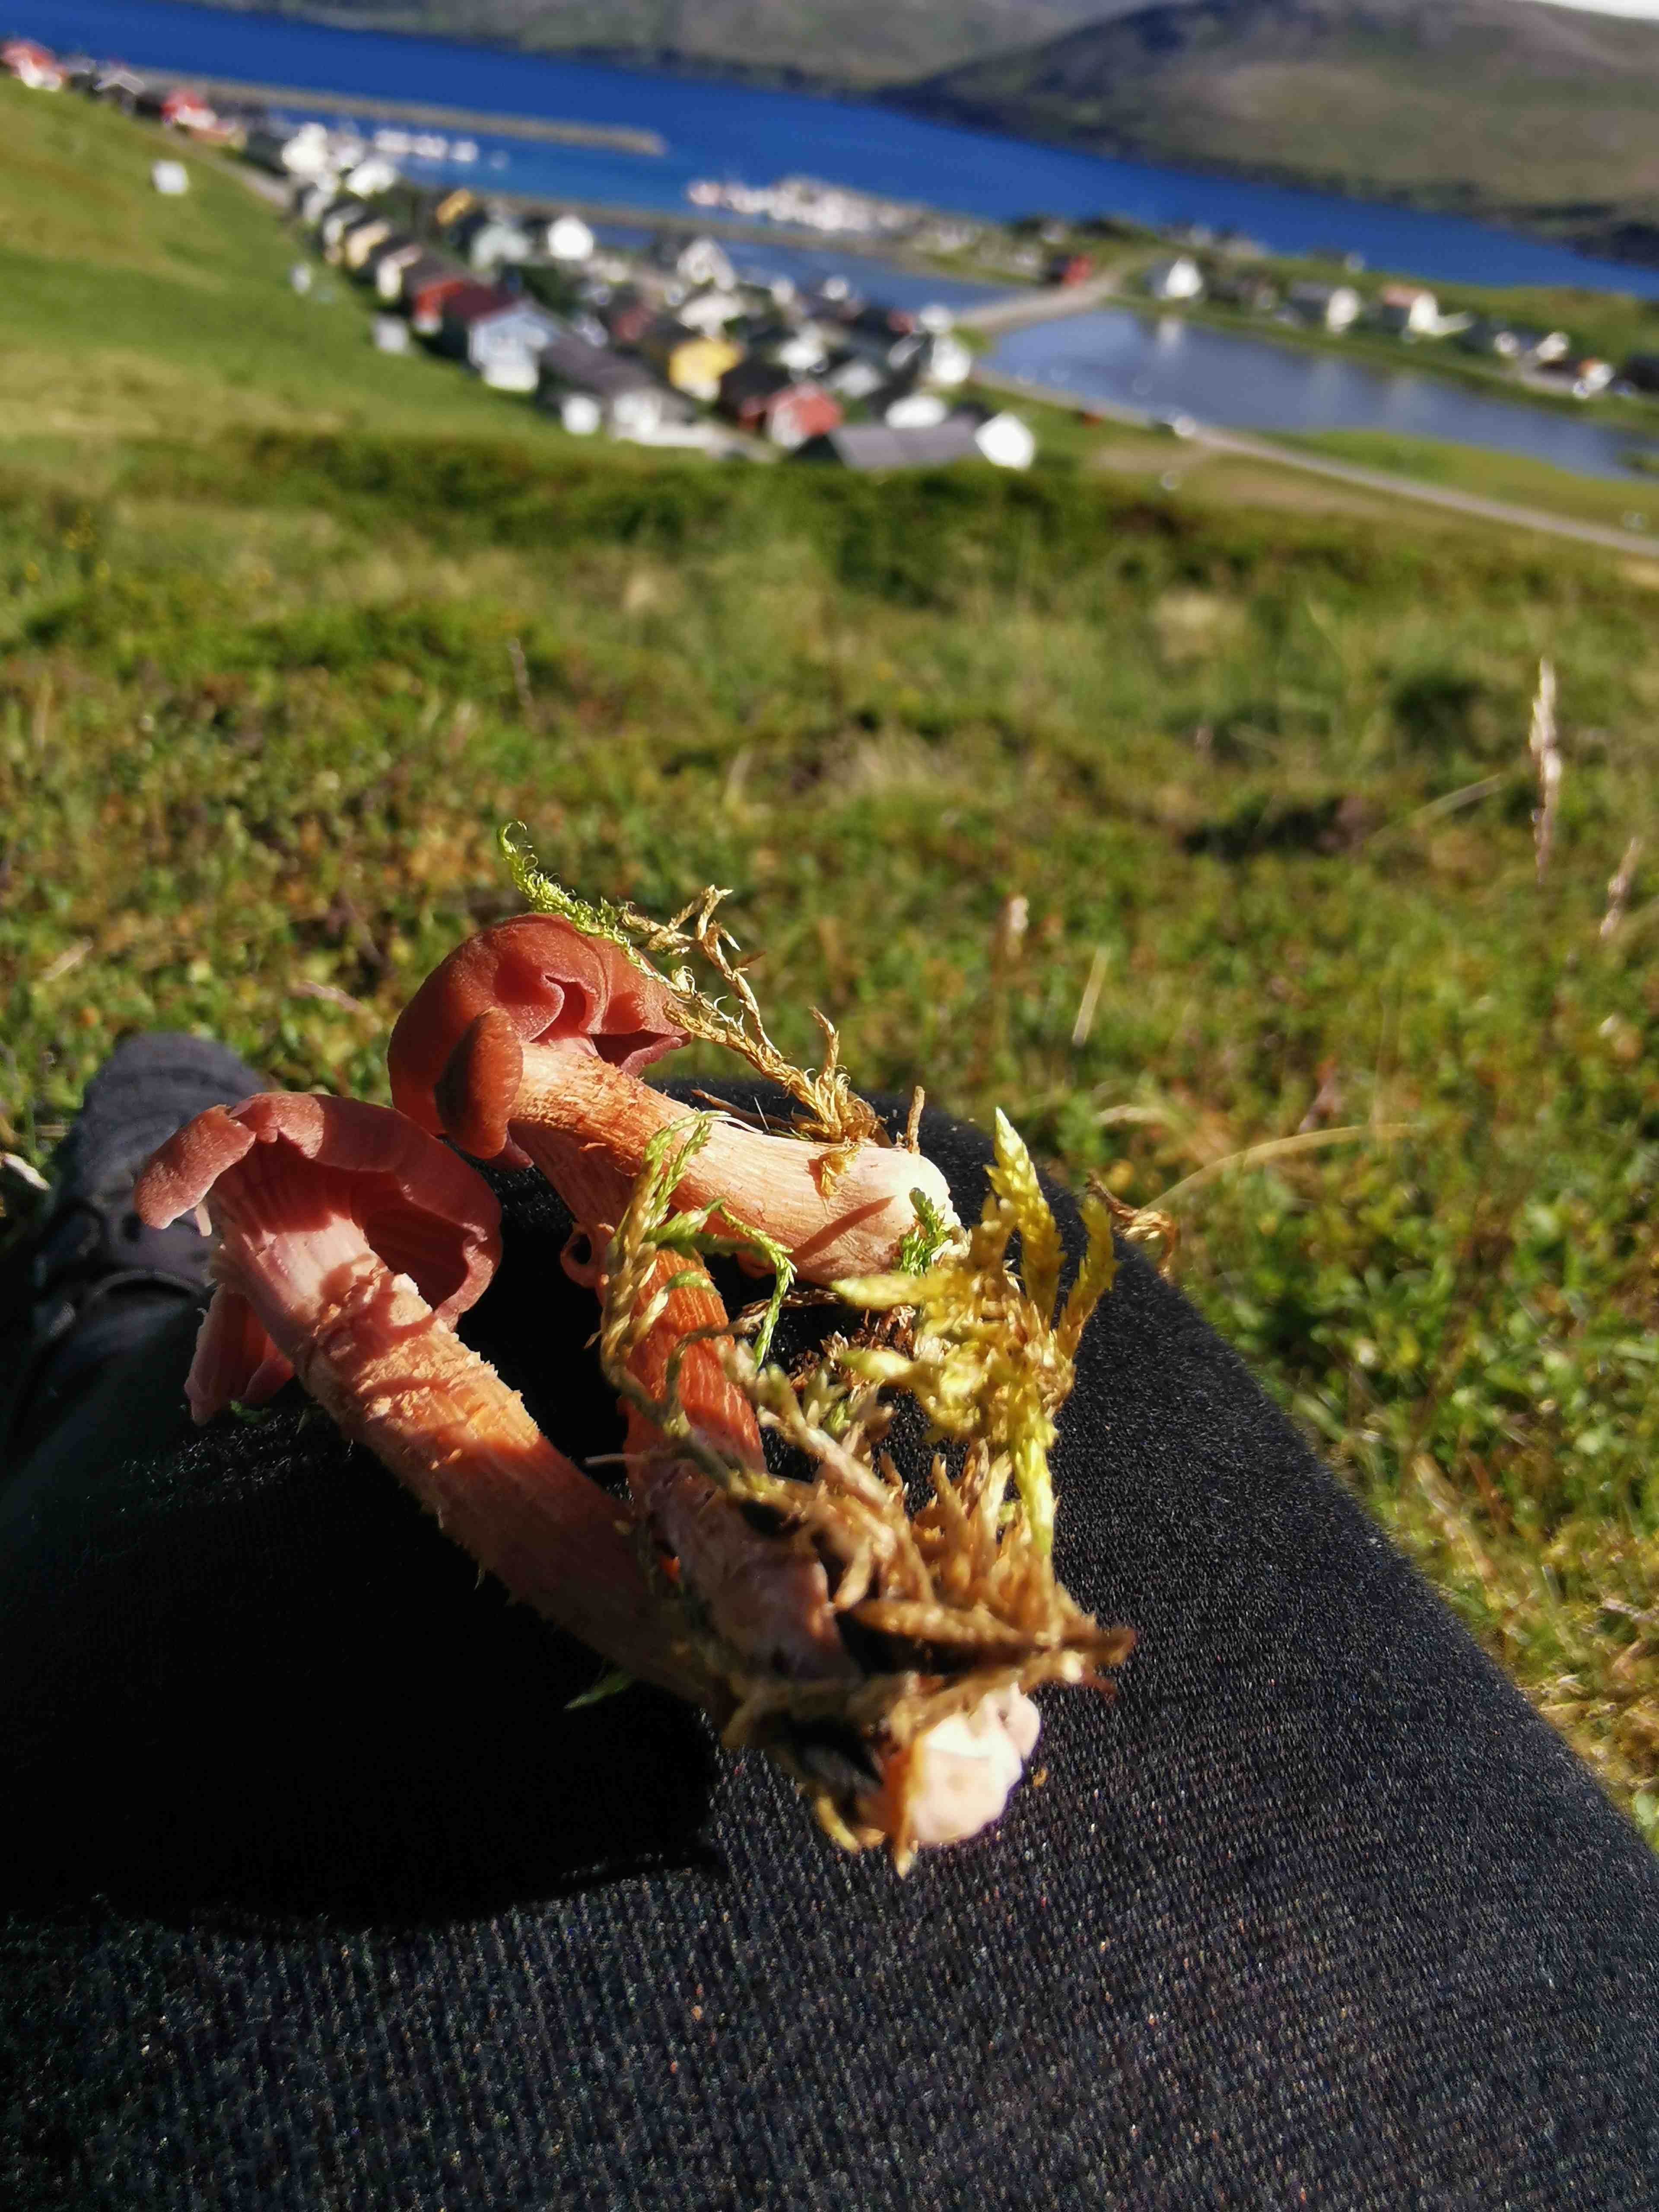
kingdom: Fungi
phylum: Basidiomycota
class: Agaricomycetes
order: Agaricales
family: Hydnangiaceae
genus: Laccaria
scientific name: Laccaria proxima
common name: stor ametysthat
